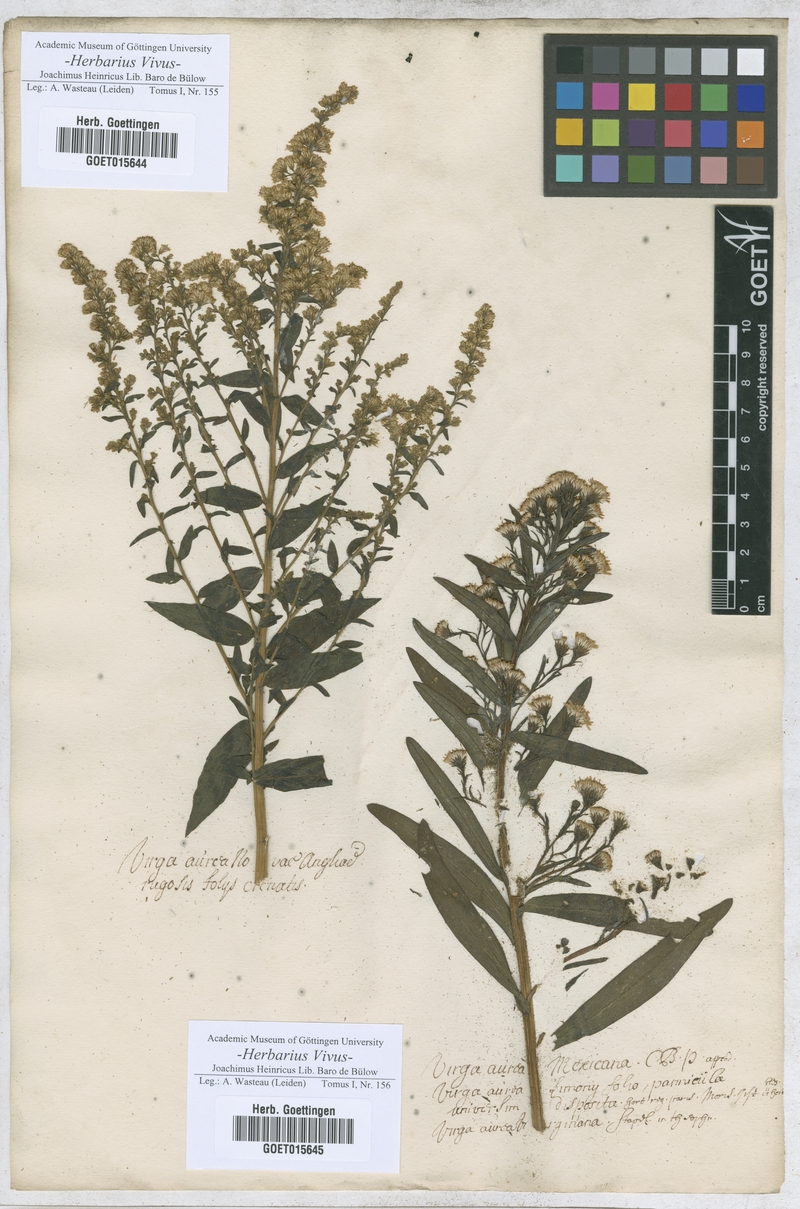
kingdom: Animalia
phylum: Arthropoda
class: Insecta
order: Lepidoptera
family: Hesperiidae
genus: Virga
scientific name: Virga
